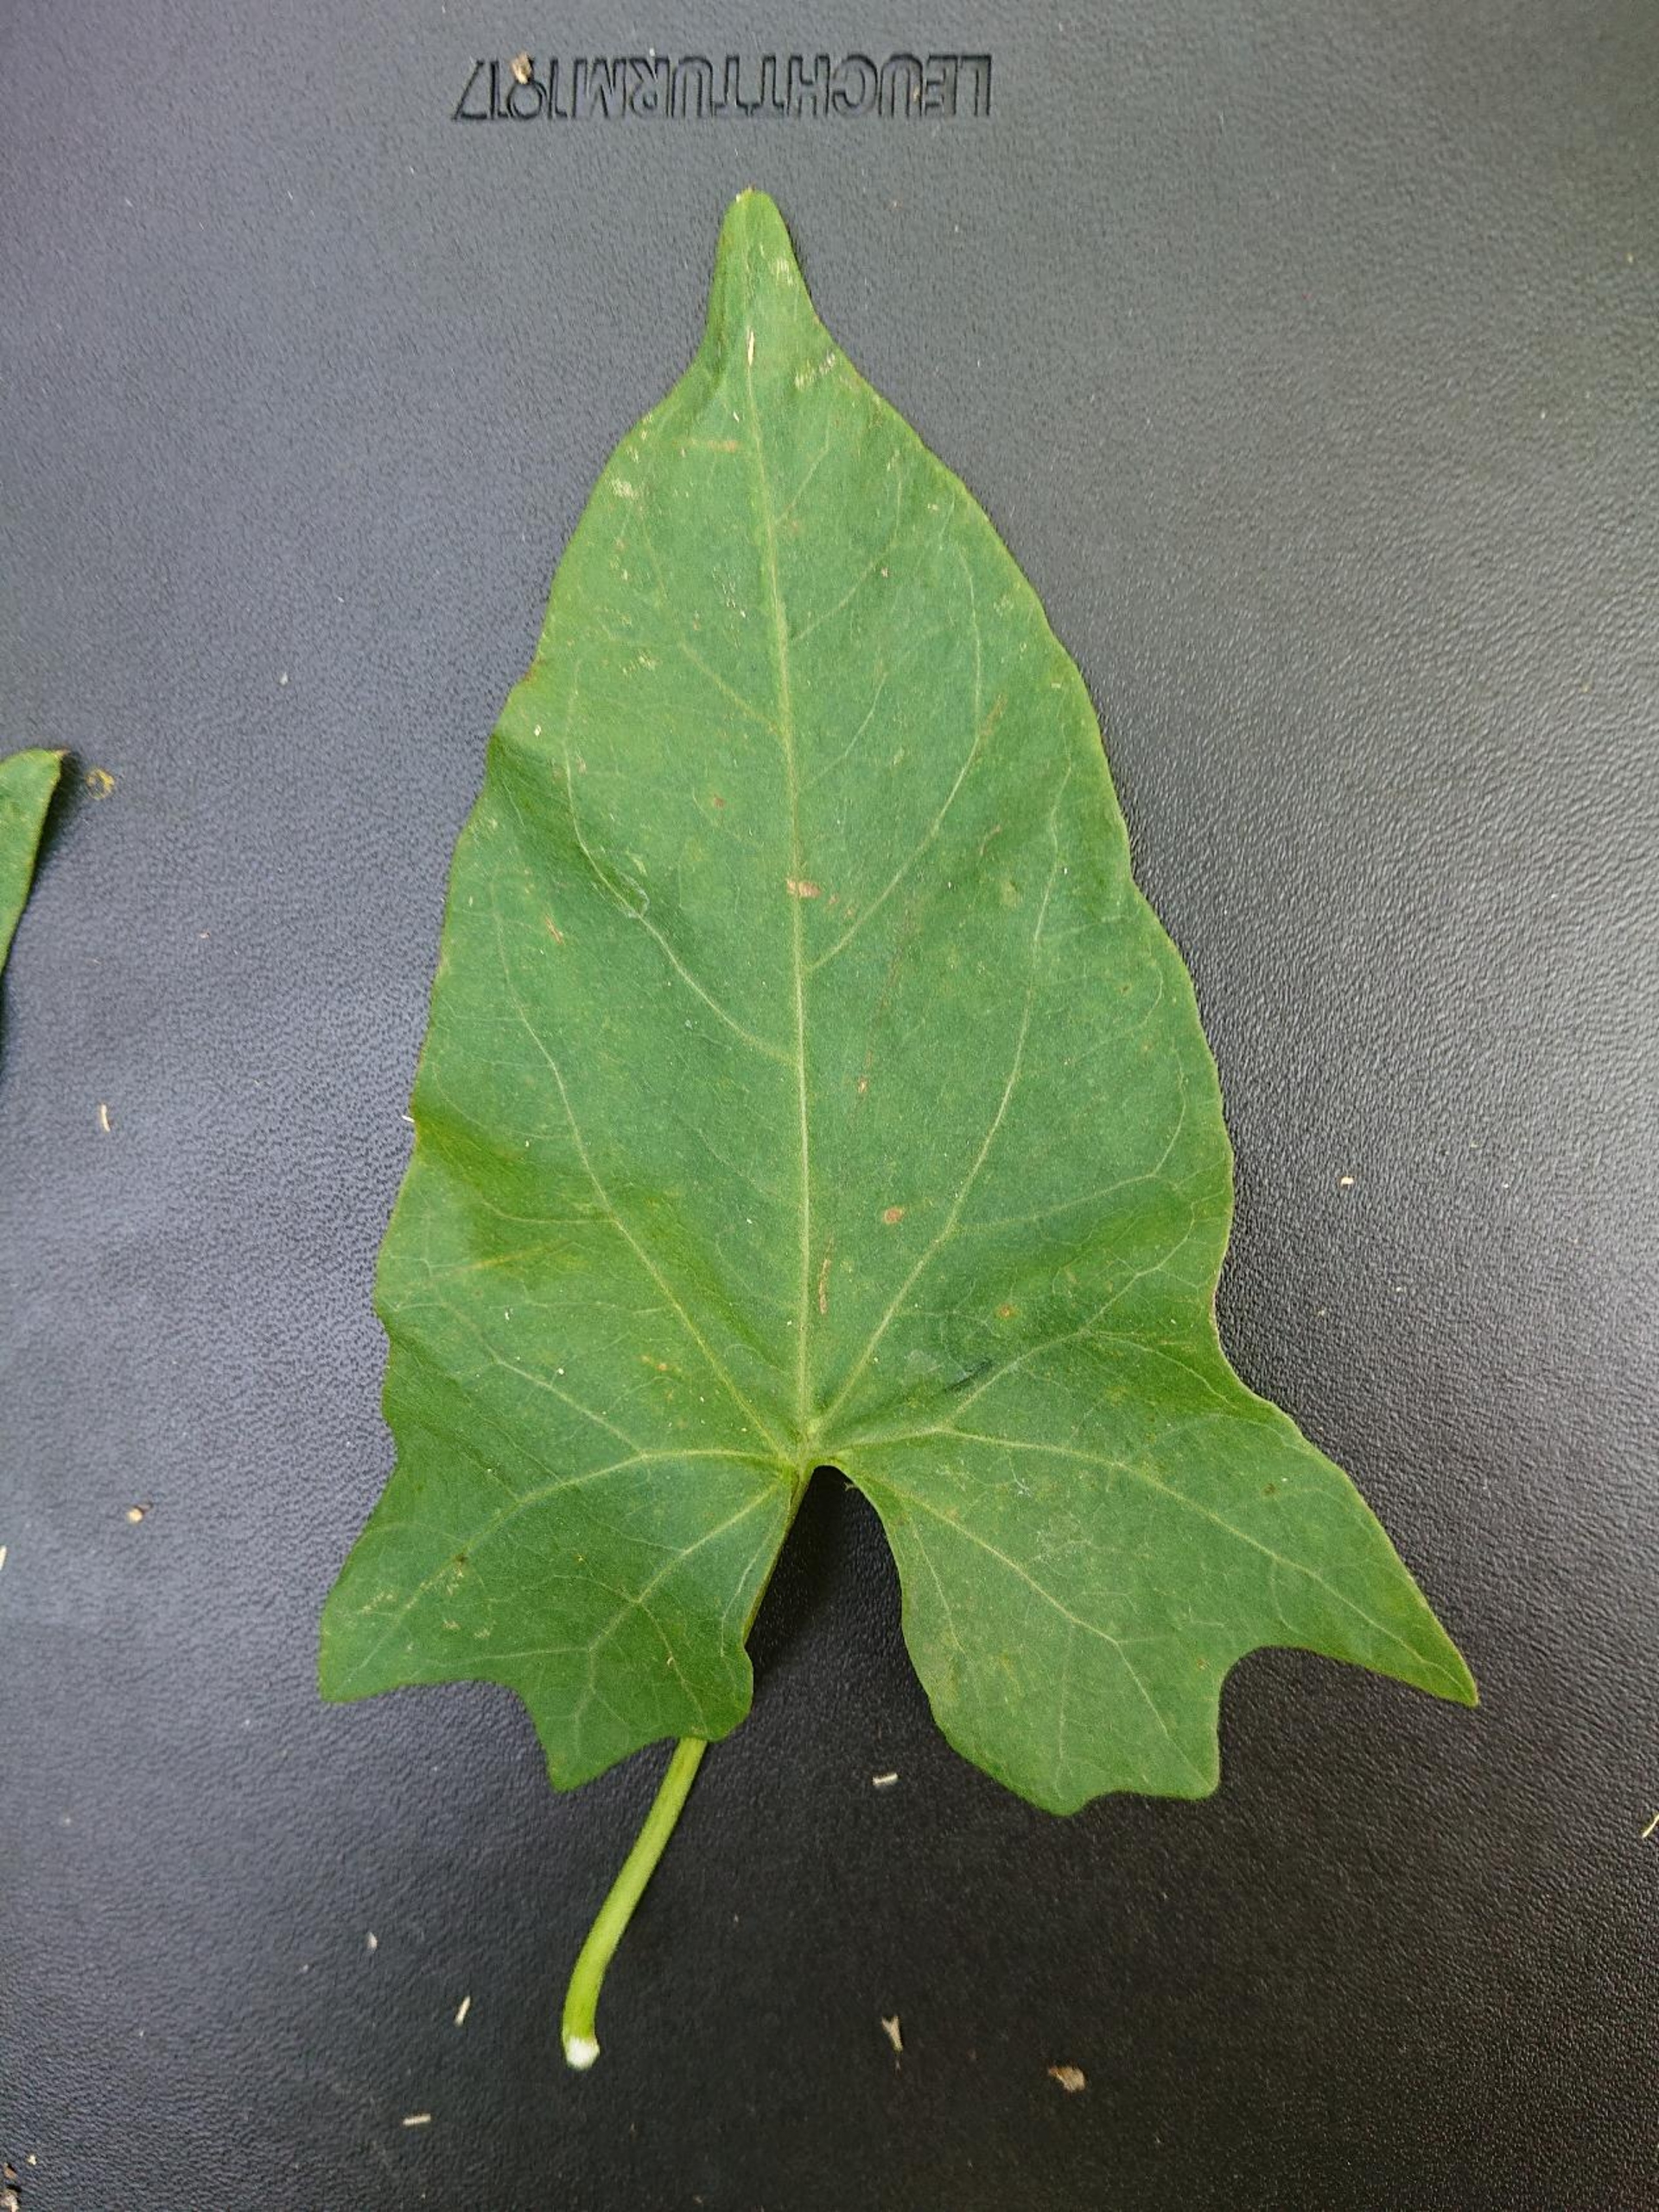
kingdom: Plantae
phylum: Tracheophyta
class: Magnoliopsida
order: Solanales
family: Convolvulaceae
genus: Calystegia
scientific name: Calystegia sepium
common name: Gærde-snerle
